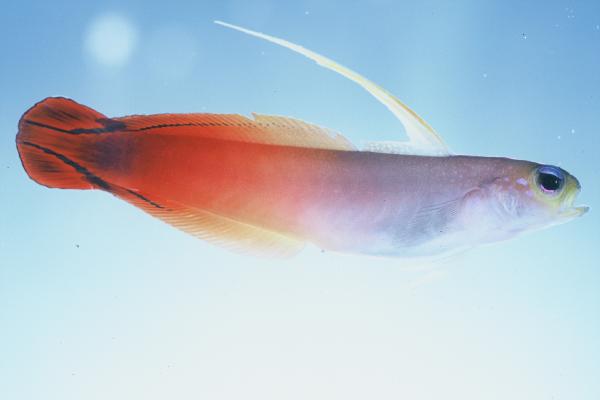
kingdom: Animalia
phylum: Chordata
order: Perciformes
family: Microdesmidae
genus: Nemateleotris
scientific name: Nemateleotris magnifica
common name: Fire goby
